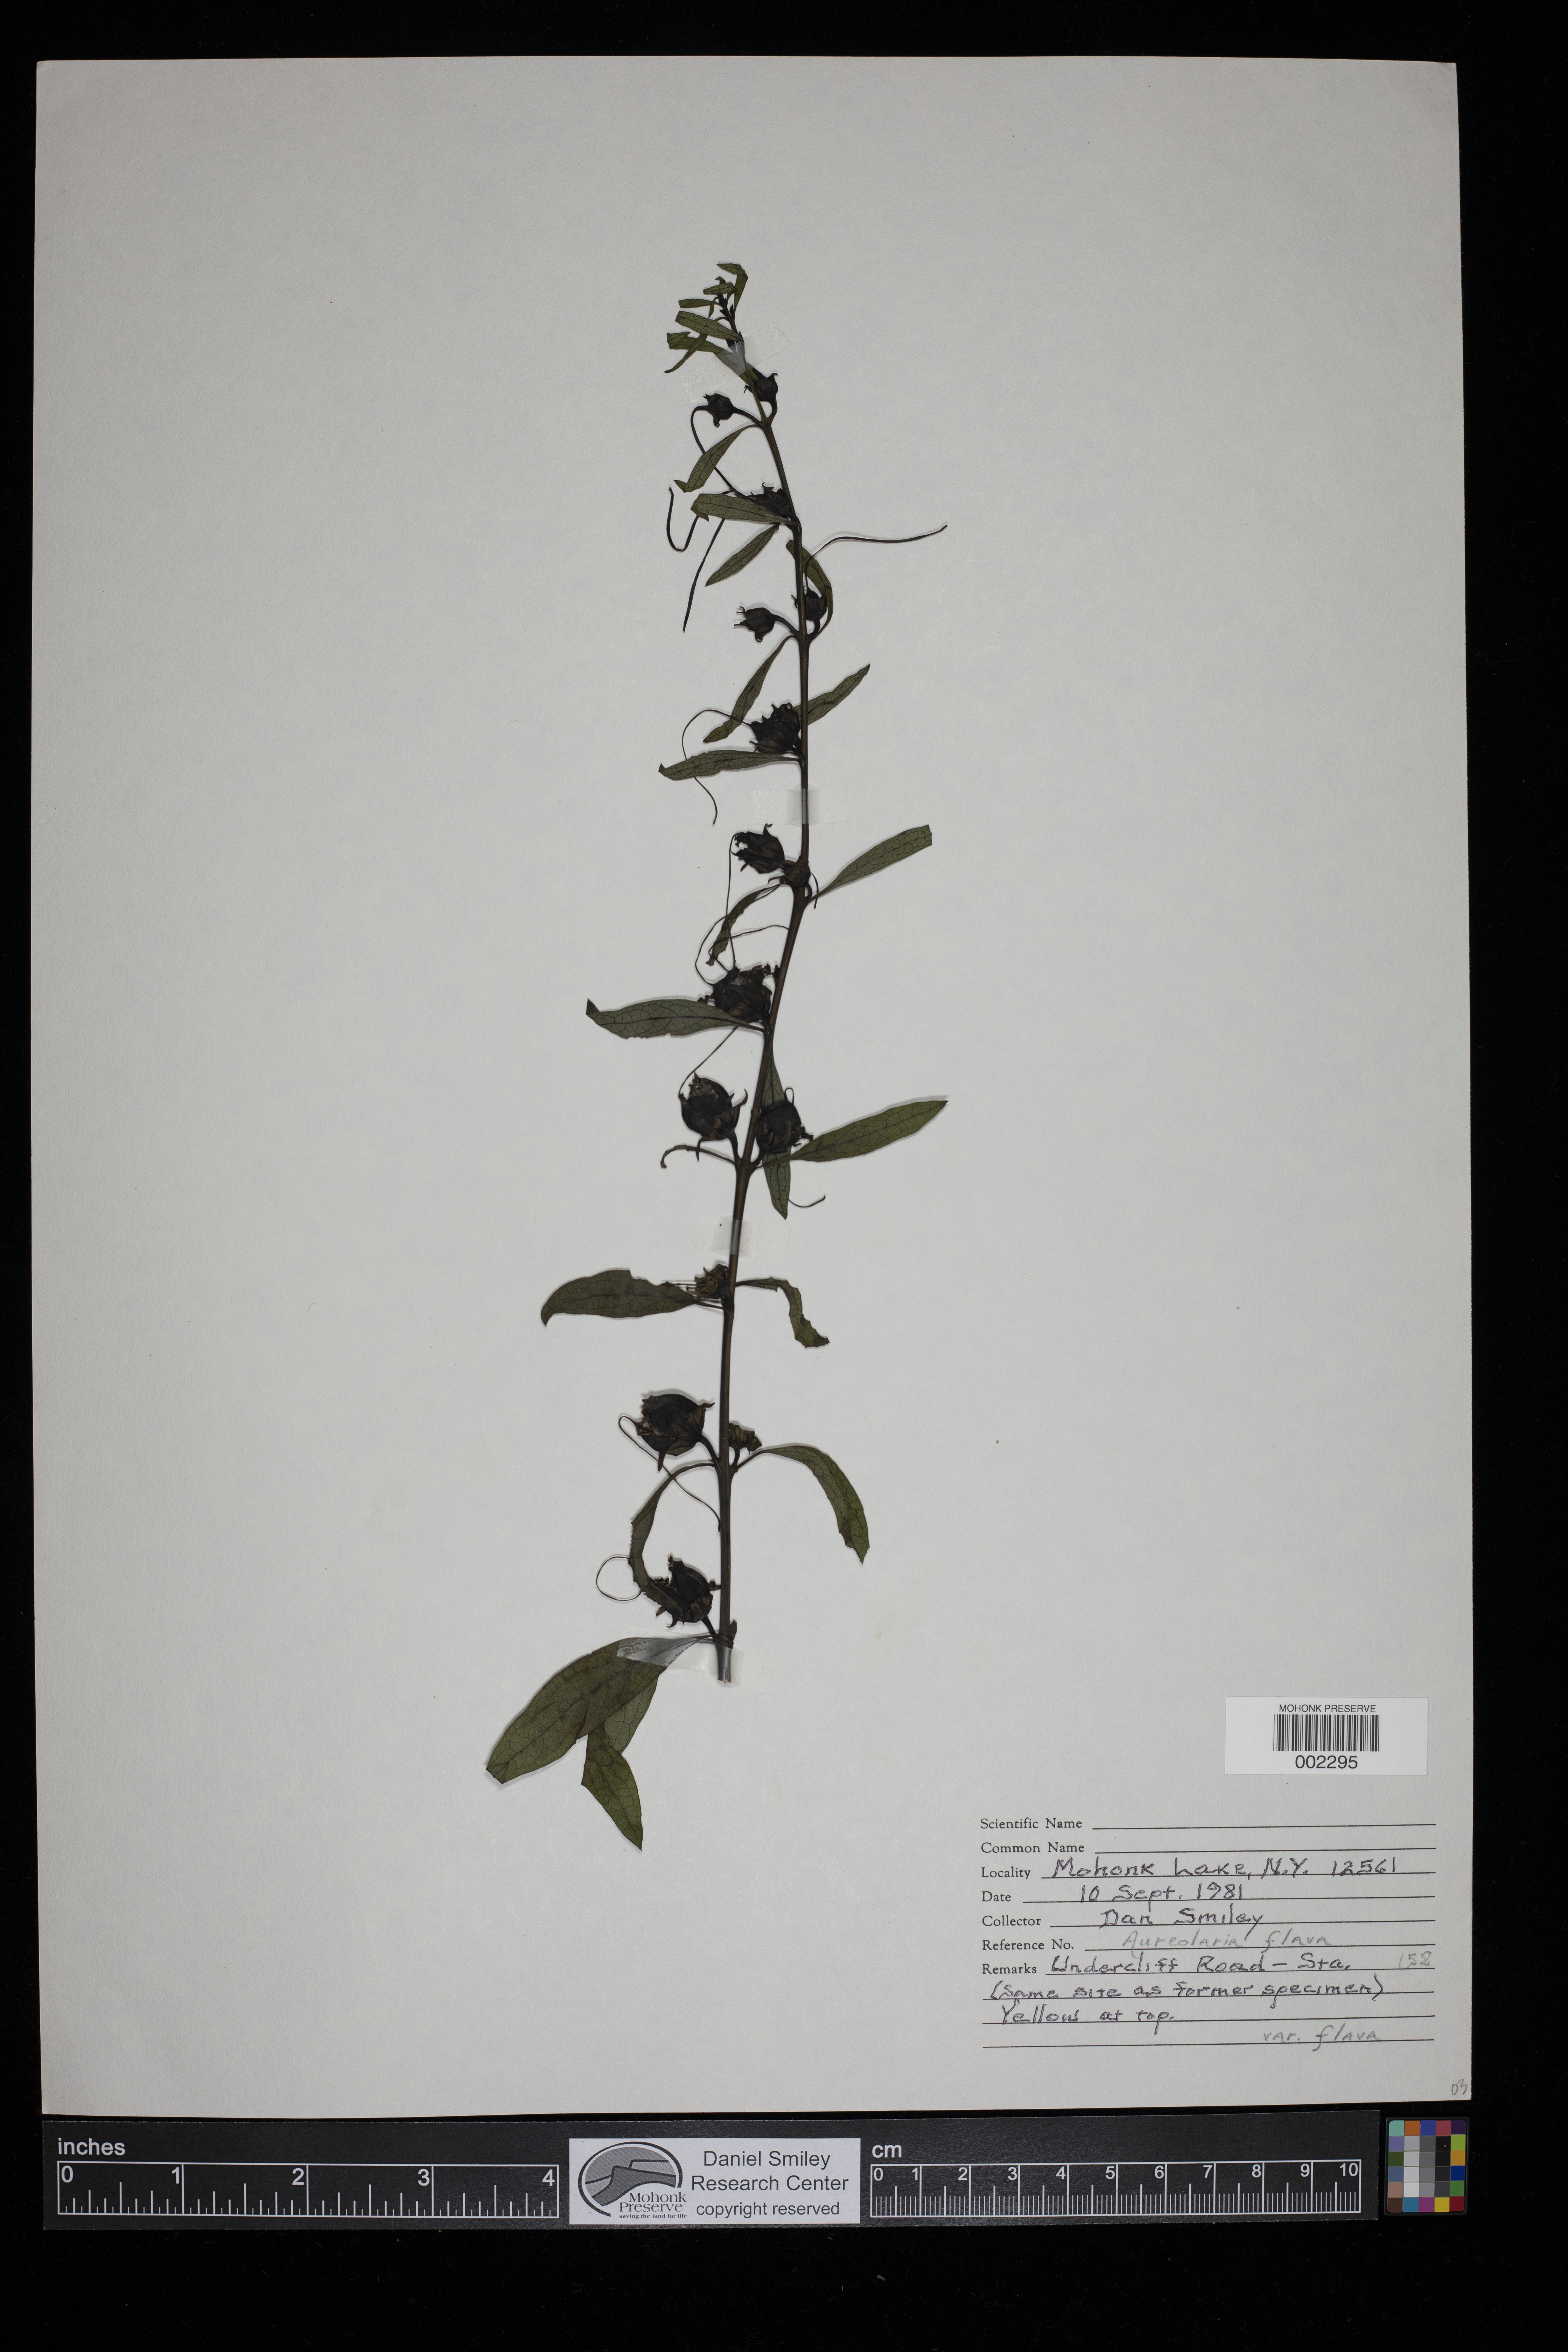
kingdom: Plantae
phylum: Tracheophyta
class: Magnoliopsida
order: Lamiales
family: Orobanchaceae
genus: Aureolaria
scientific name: Aureolaria flava
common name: Smooth false foxglove
